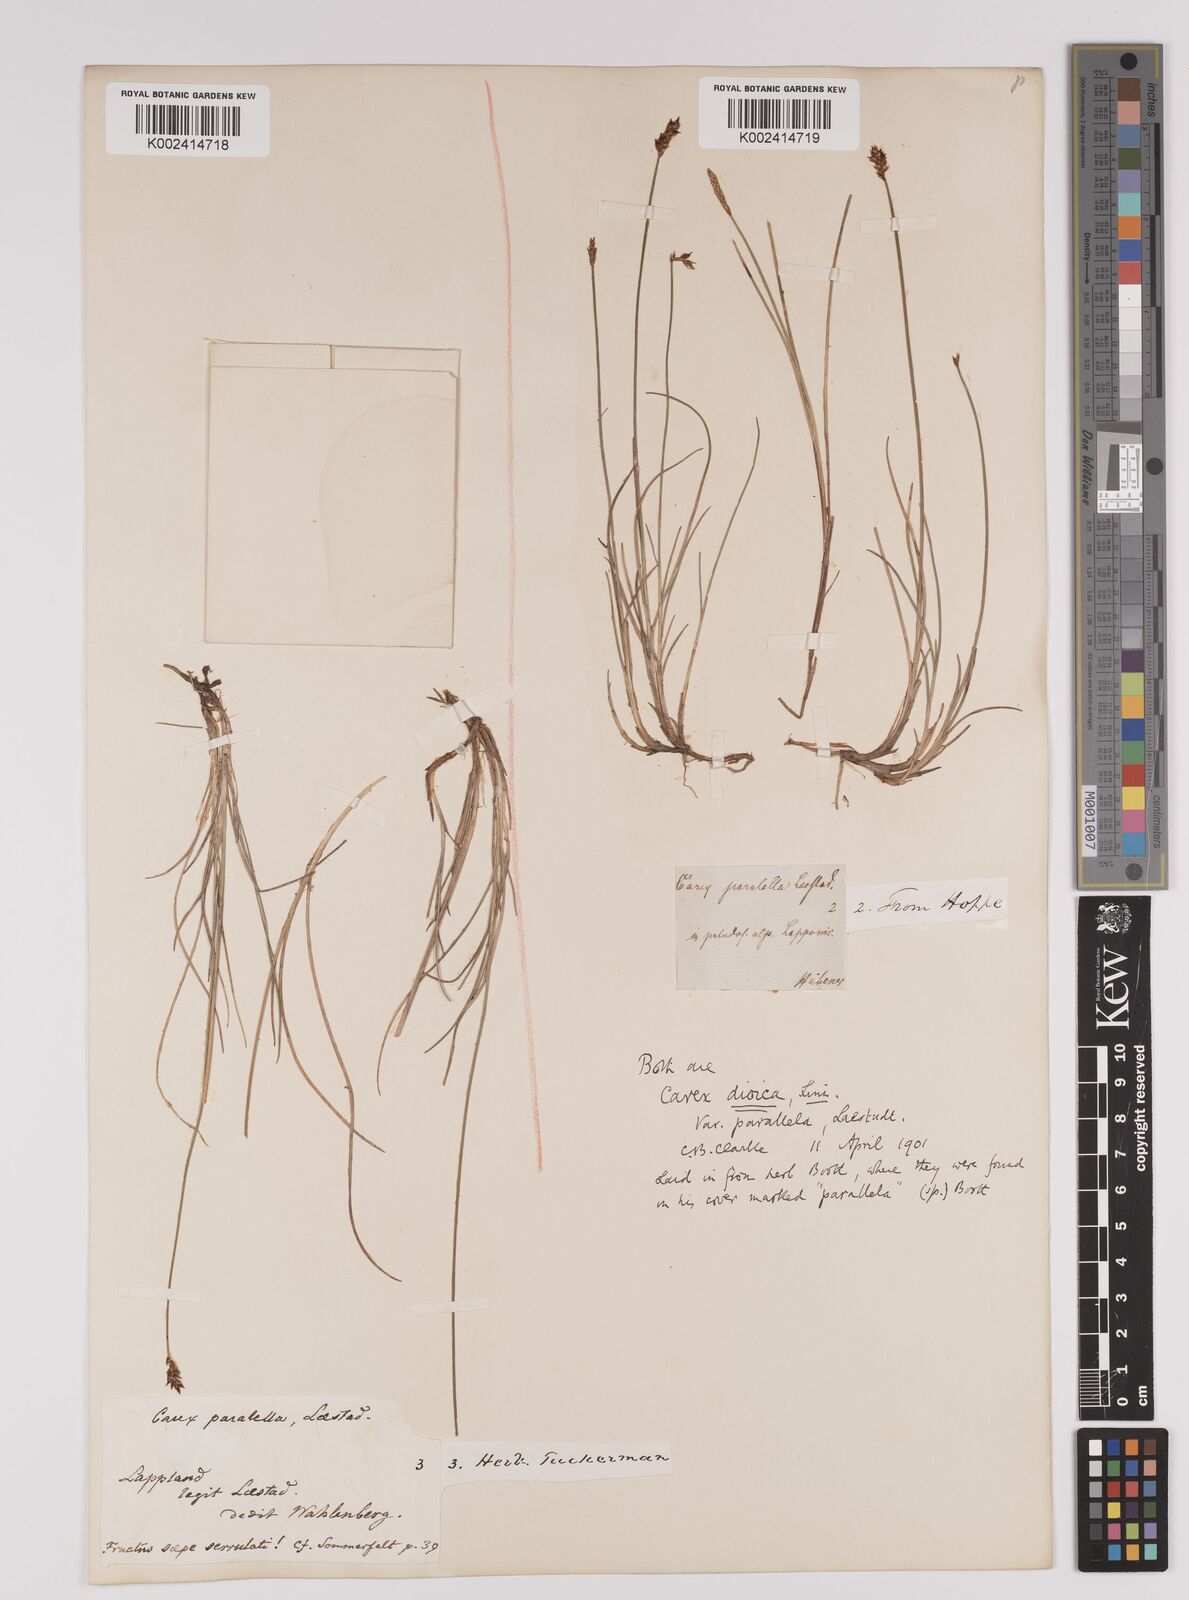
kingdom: Plantae
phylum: Tracheophyta
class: Liliopsida
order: Poales
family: Cyperaceae
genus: Carex
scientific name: Carex parallela
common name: Parallel sedge
